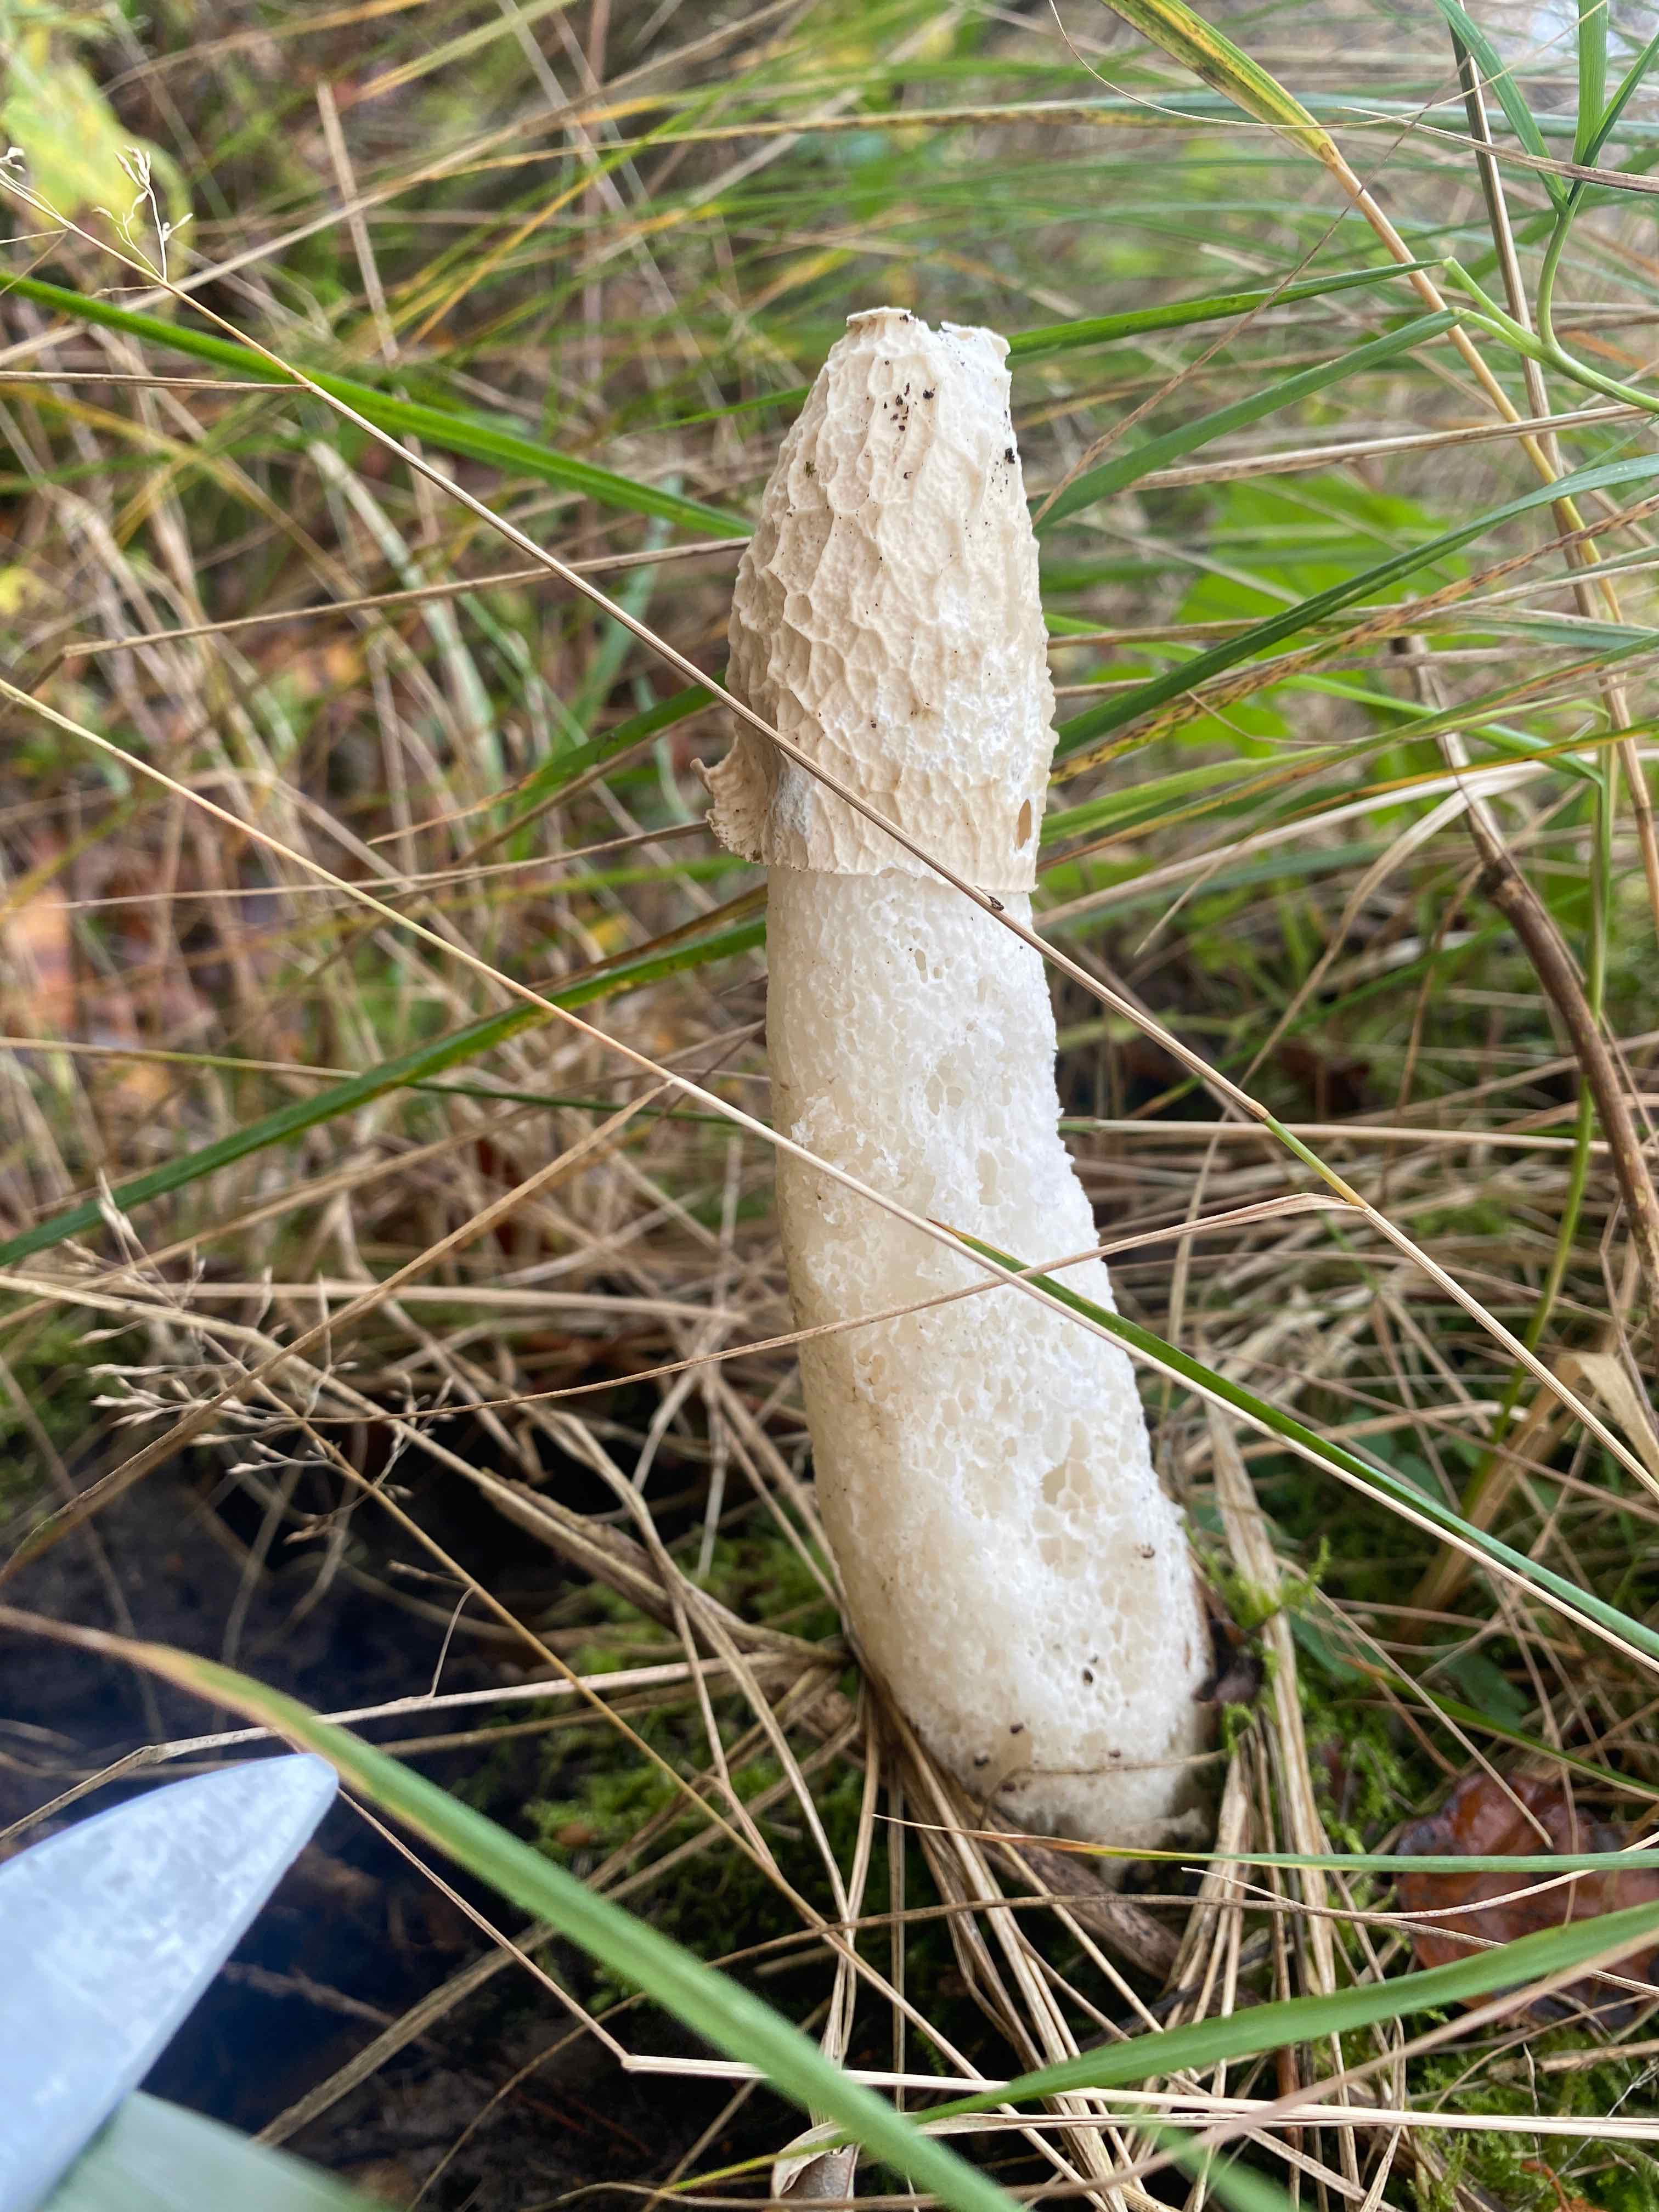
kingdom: Fungi
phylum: Basidiomycota
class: Agaricomycetes
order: Phallales
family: Phallaceae
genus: Phallus
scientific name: Phallus impudicus
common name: almindelig stinksvamp
